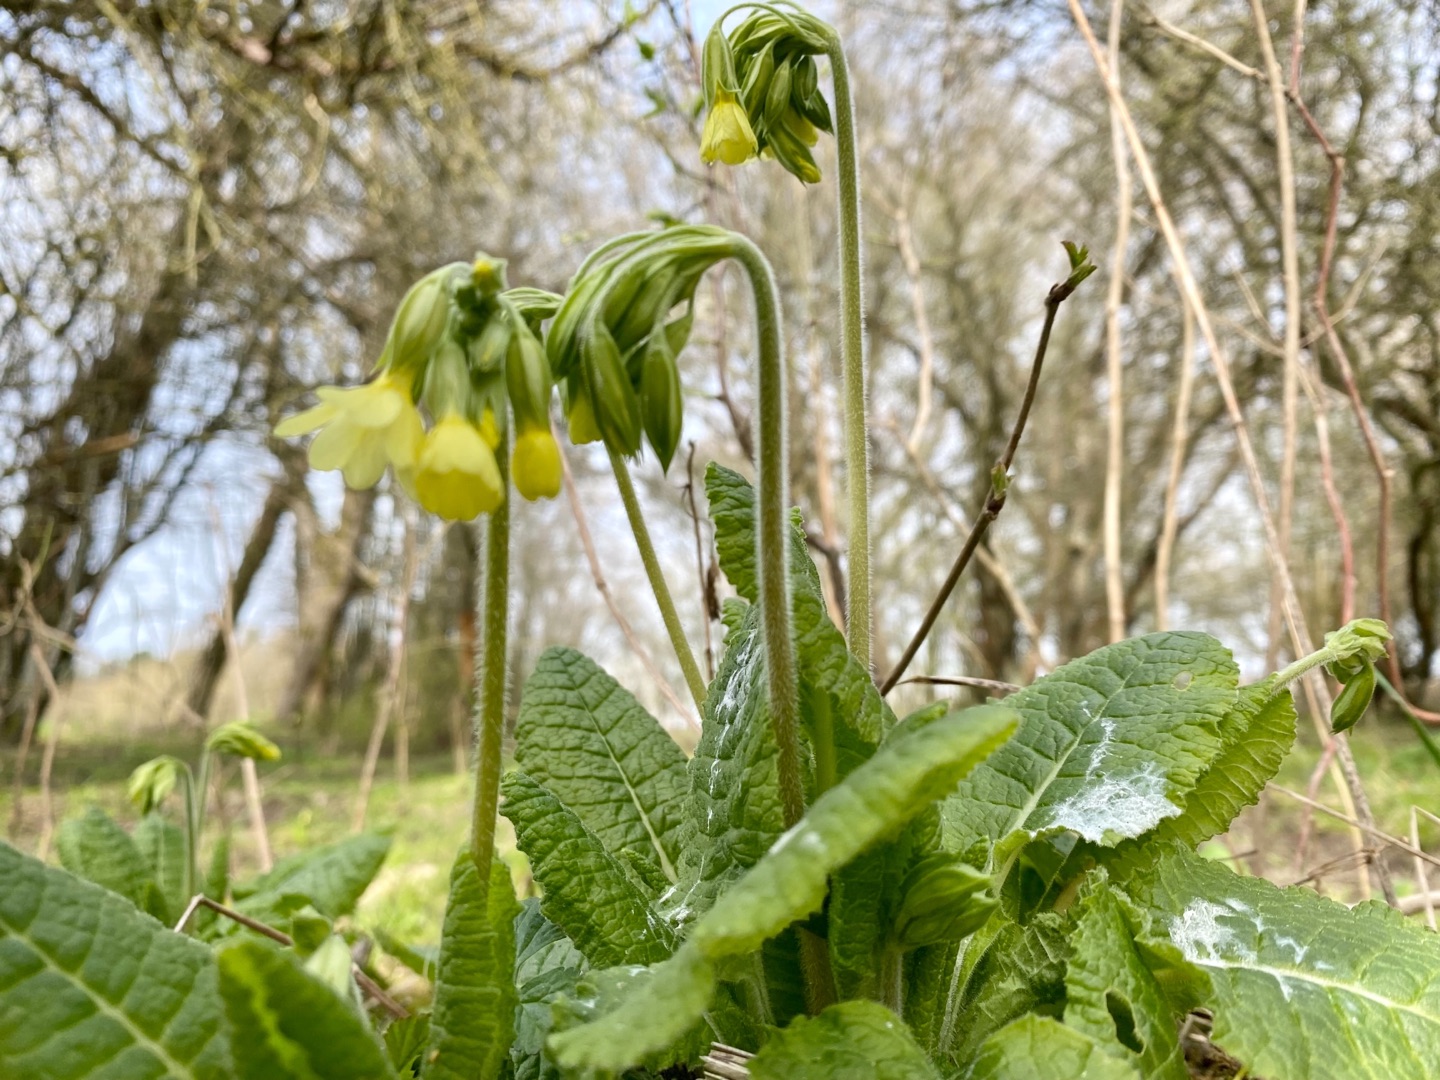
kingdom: Plantae
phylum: Tracheophyta
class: Magnoliopsida
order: Ericales
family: Primulaceae
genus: Primula
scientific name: Primula elatior
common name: Fladkravet kodriver
